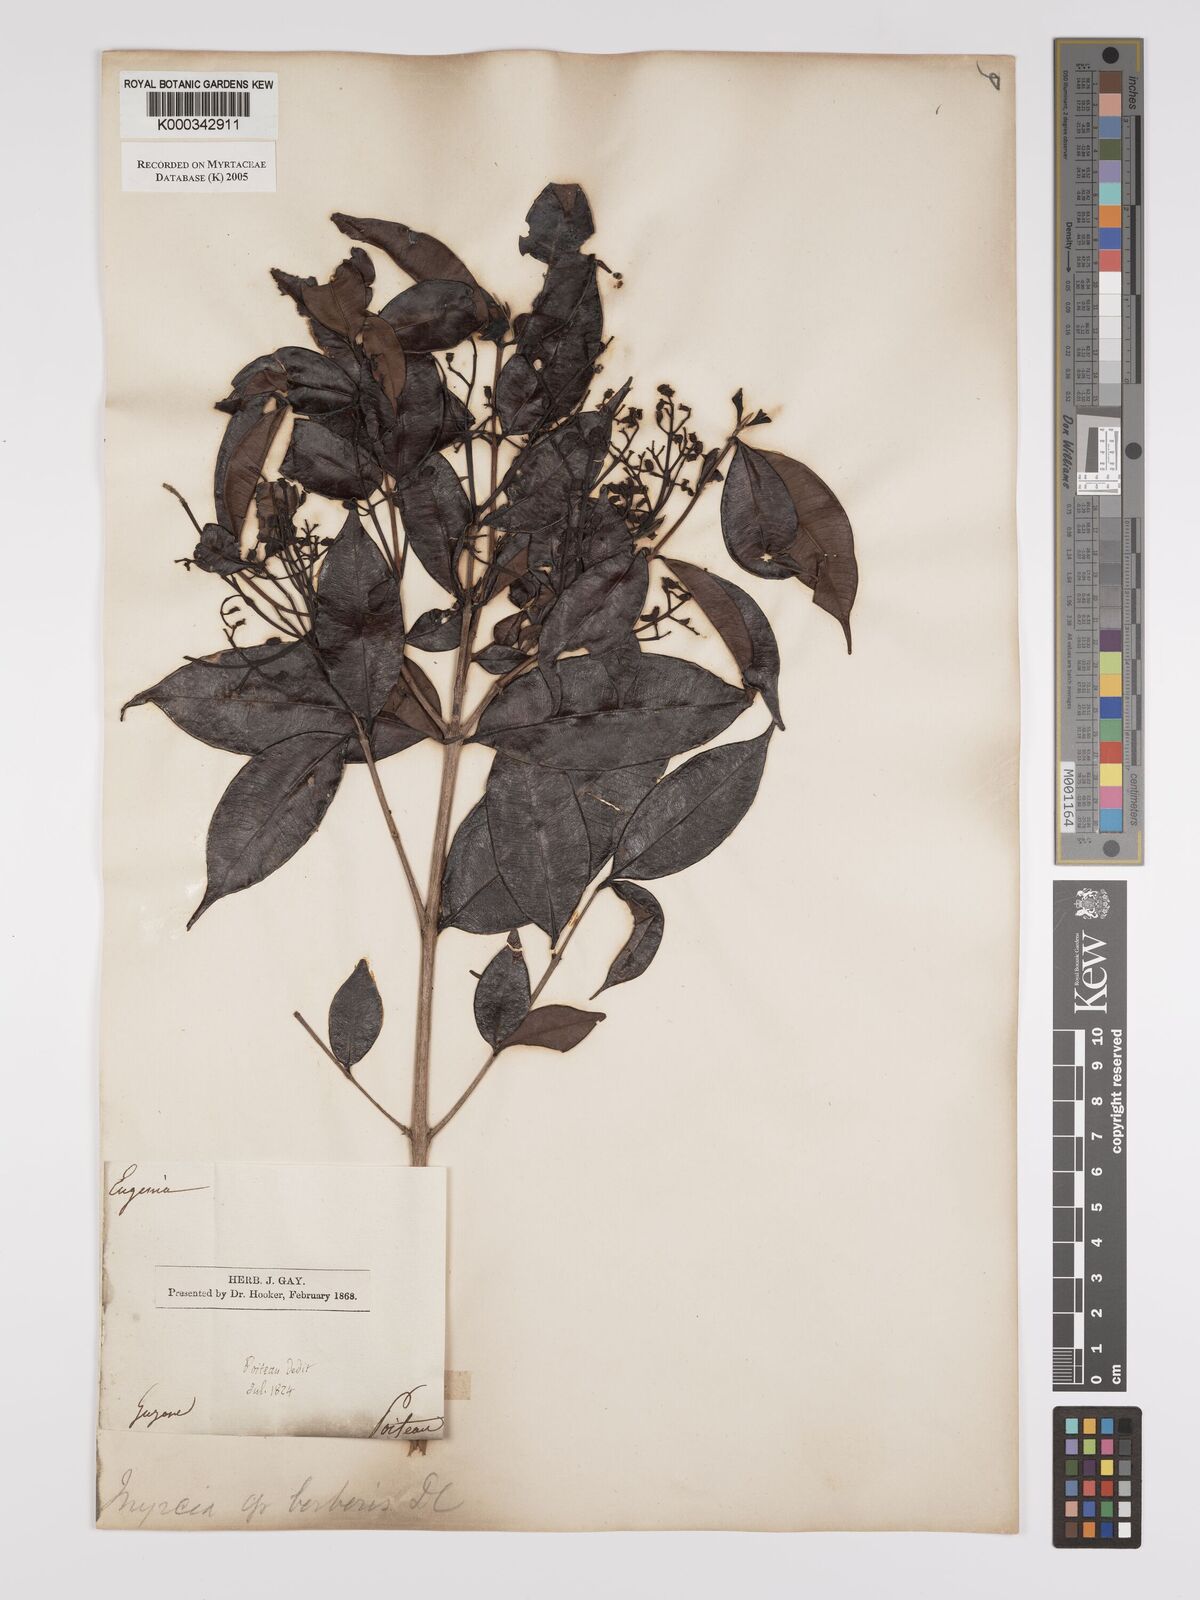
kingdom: Plantae
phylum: Tracheophyta
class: Magnoliopsida
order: Myrtales
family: Myrtaceae
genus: Myrcia
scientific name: Myrcia splendens
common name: Surinam cherry
